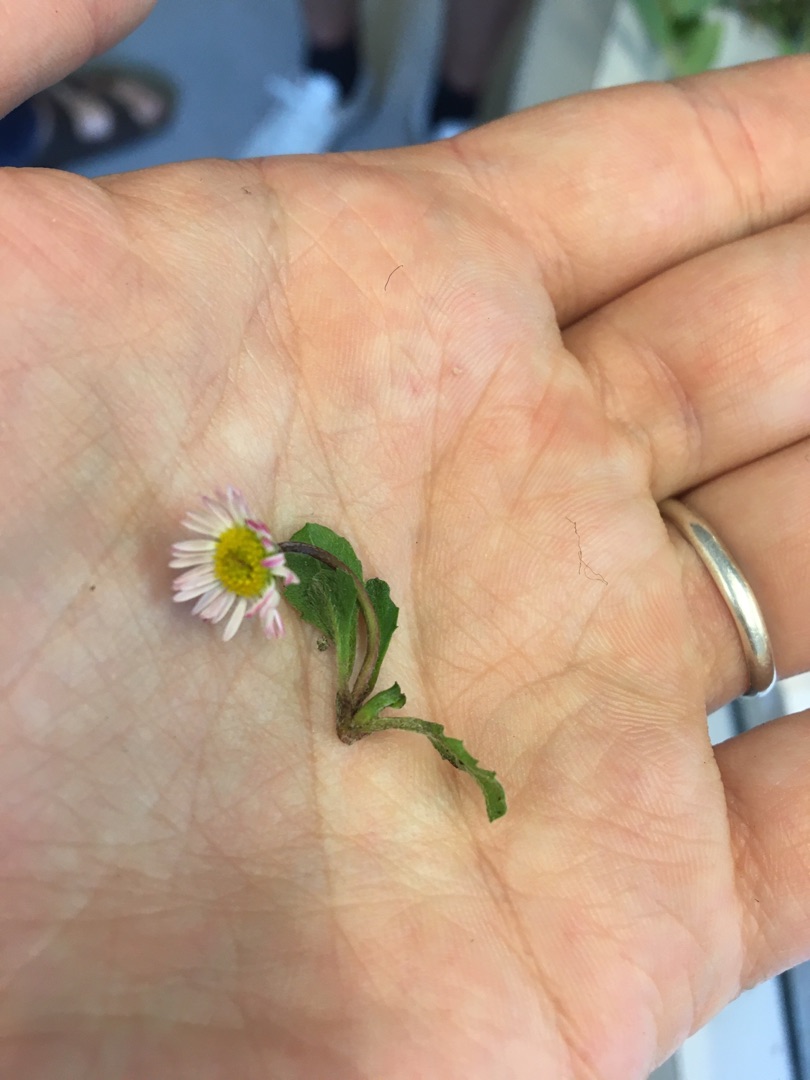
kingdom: Plantae
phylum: Tracheophyta
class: Magnoliopsida
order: Asterales
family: Asteraceae
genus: Bellis
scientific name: Bellis perennis
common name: Tusindfryd
